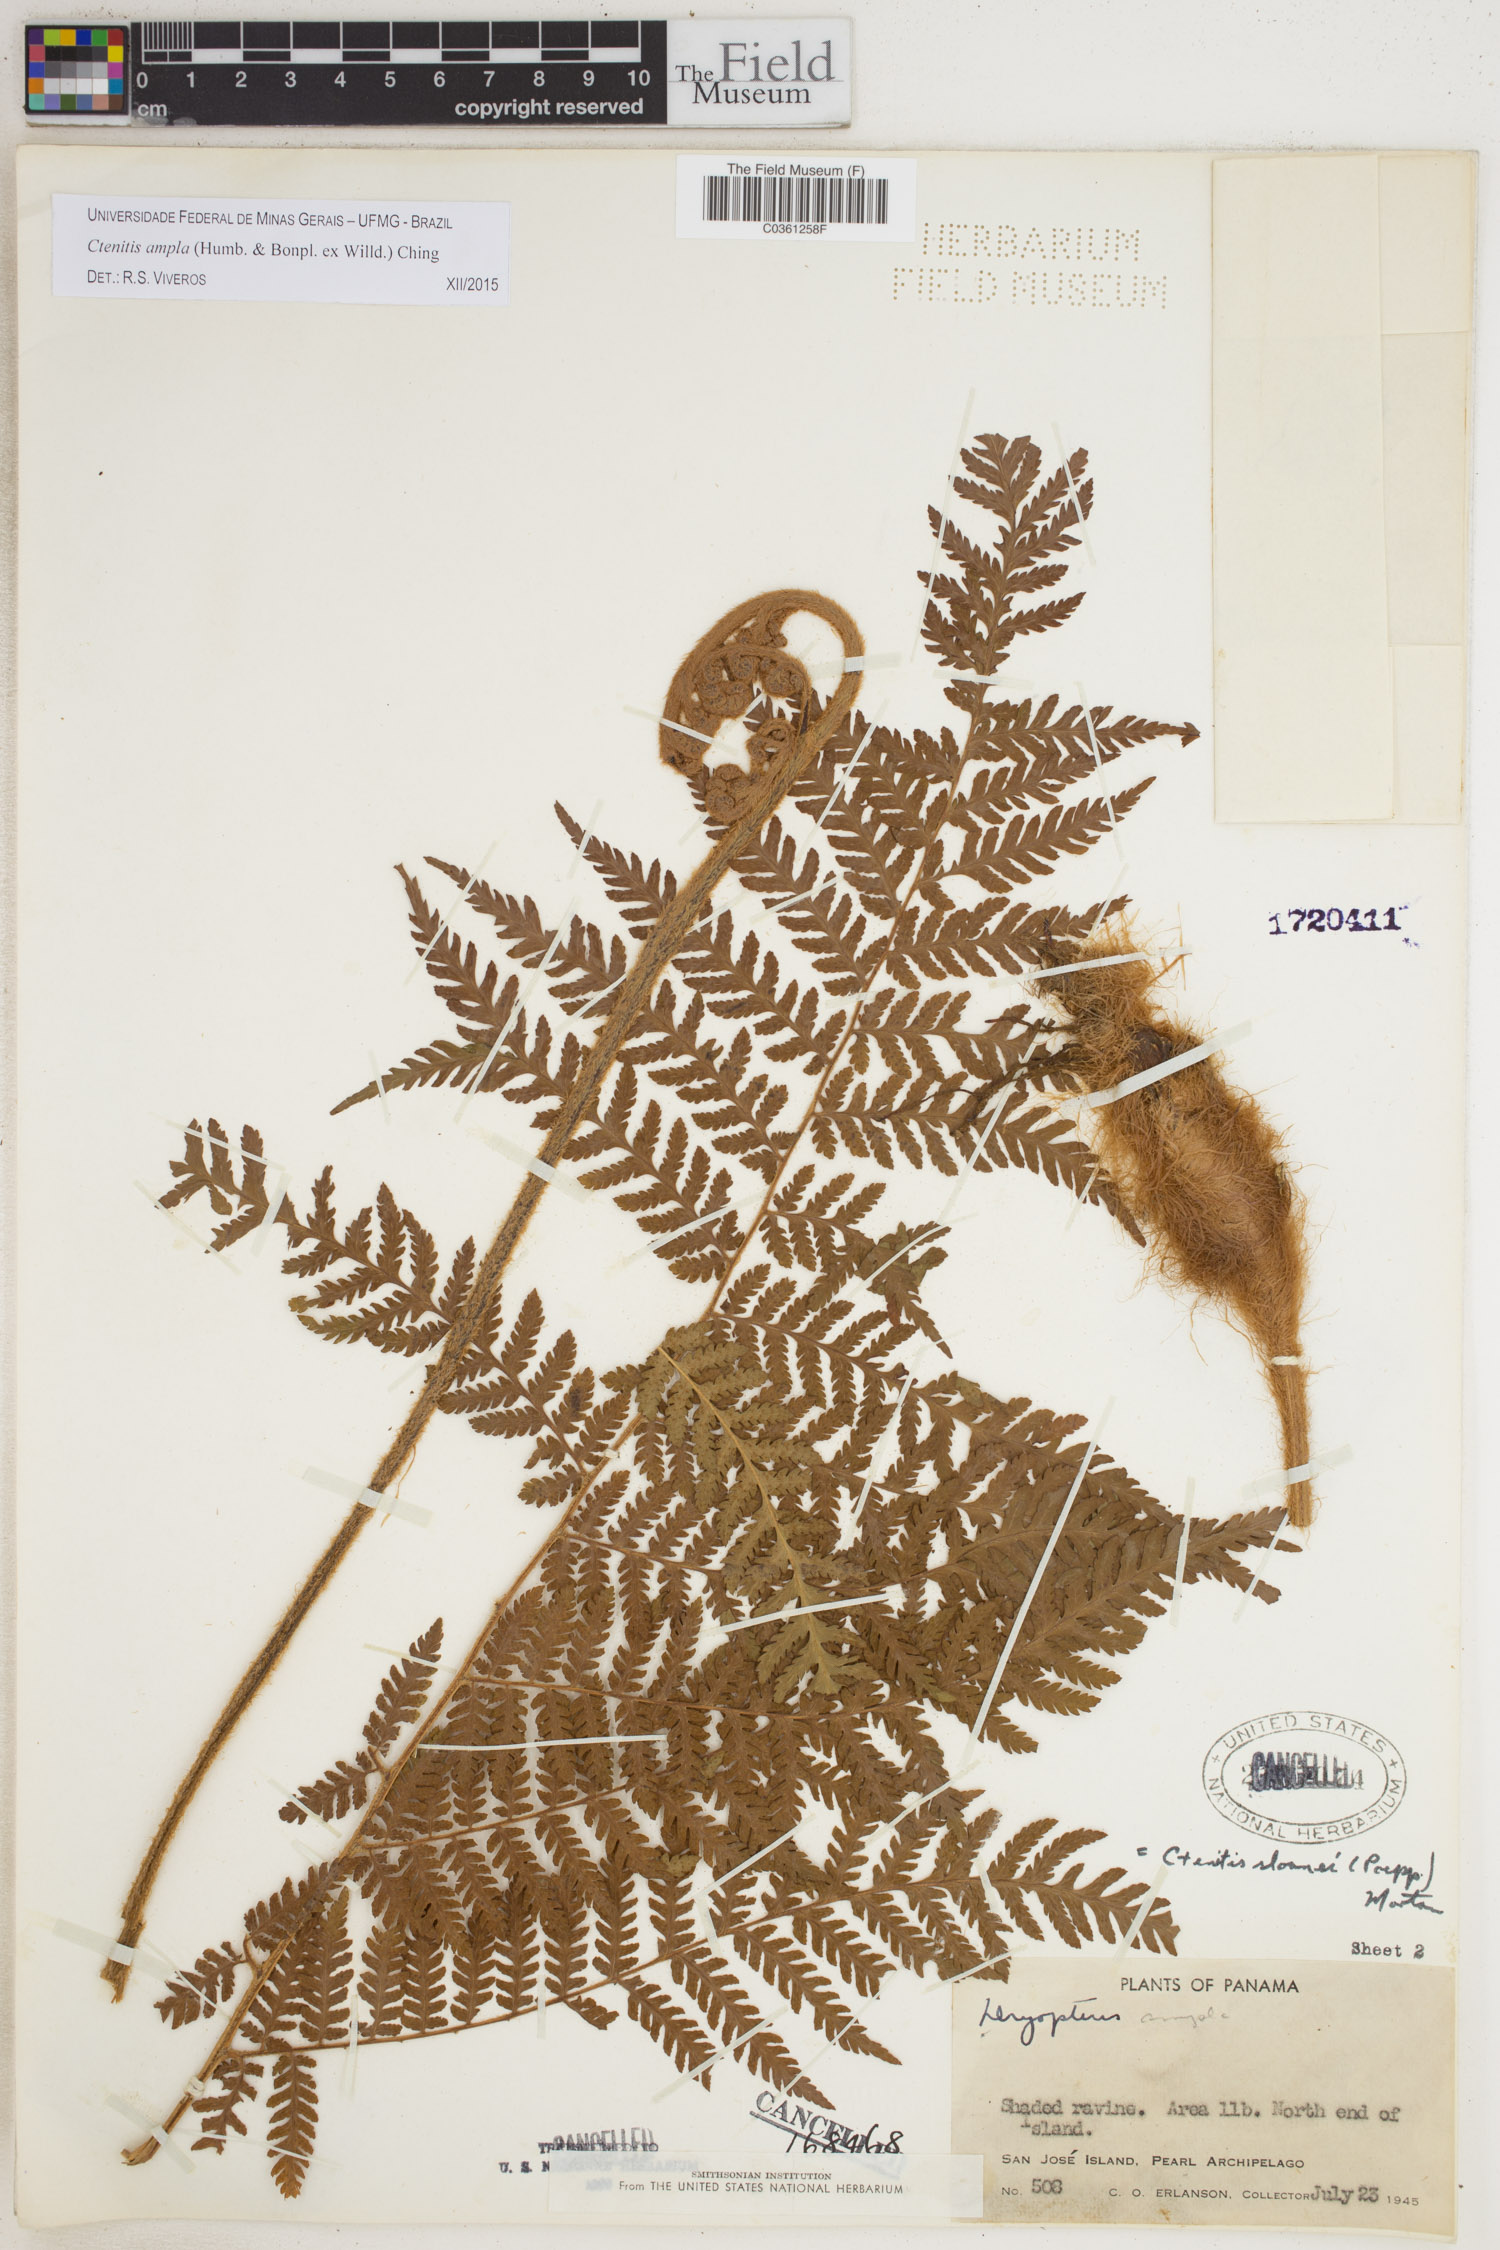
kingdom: Plantae
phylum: Tracheophyta
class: Polypodiopsida
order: Polypodiales
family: Dryopteridaceae
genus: Ctenitis
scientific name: Ctenitis sloanei
